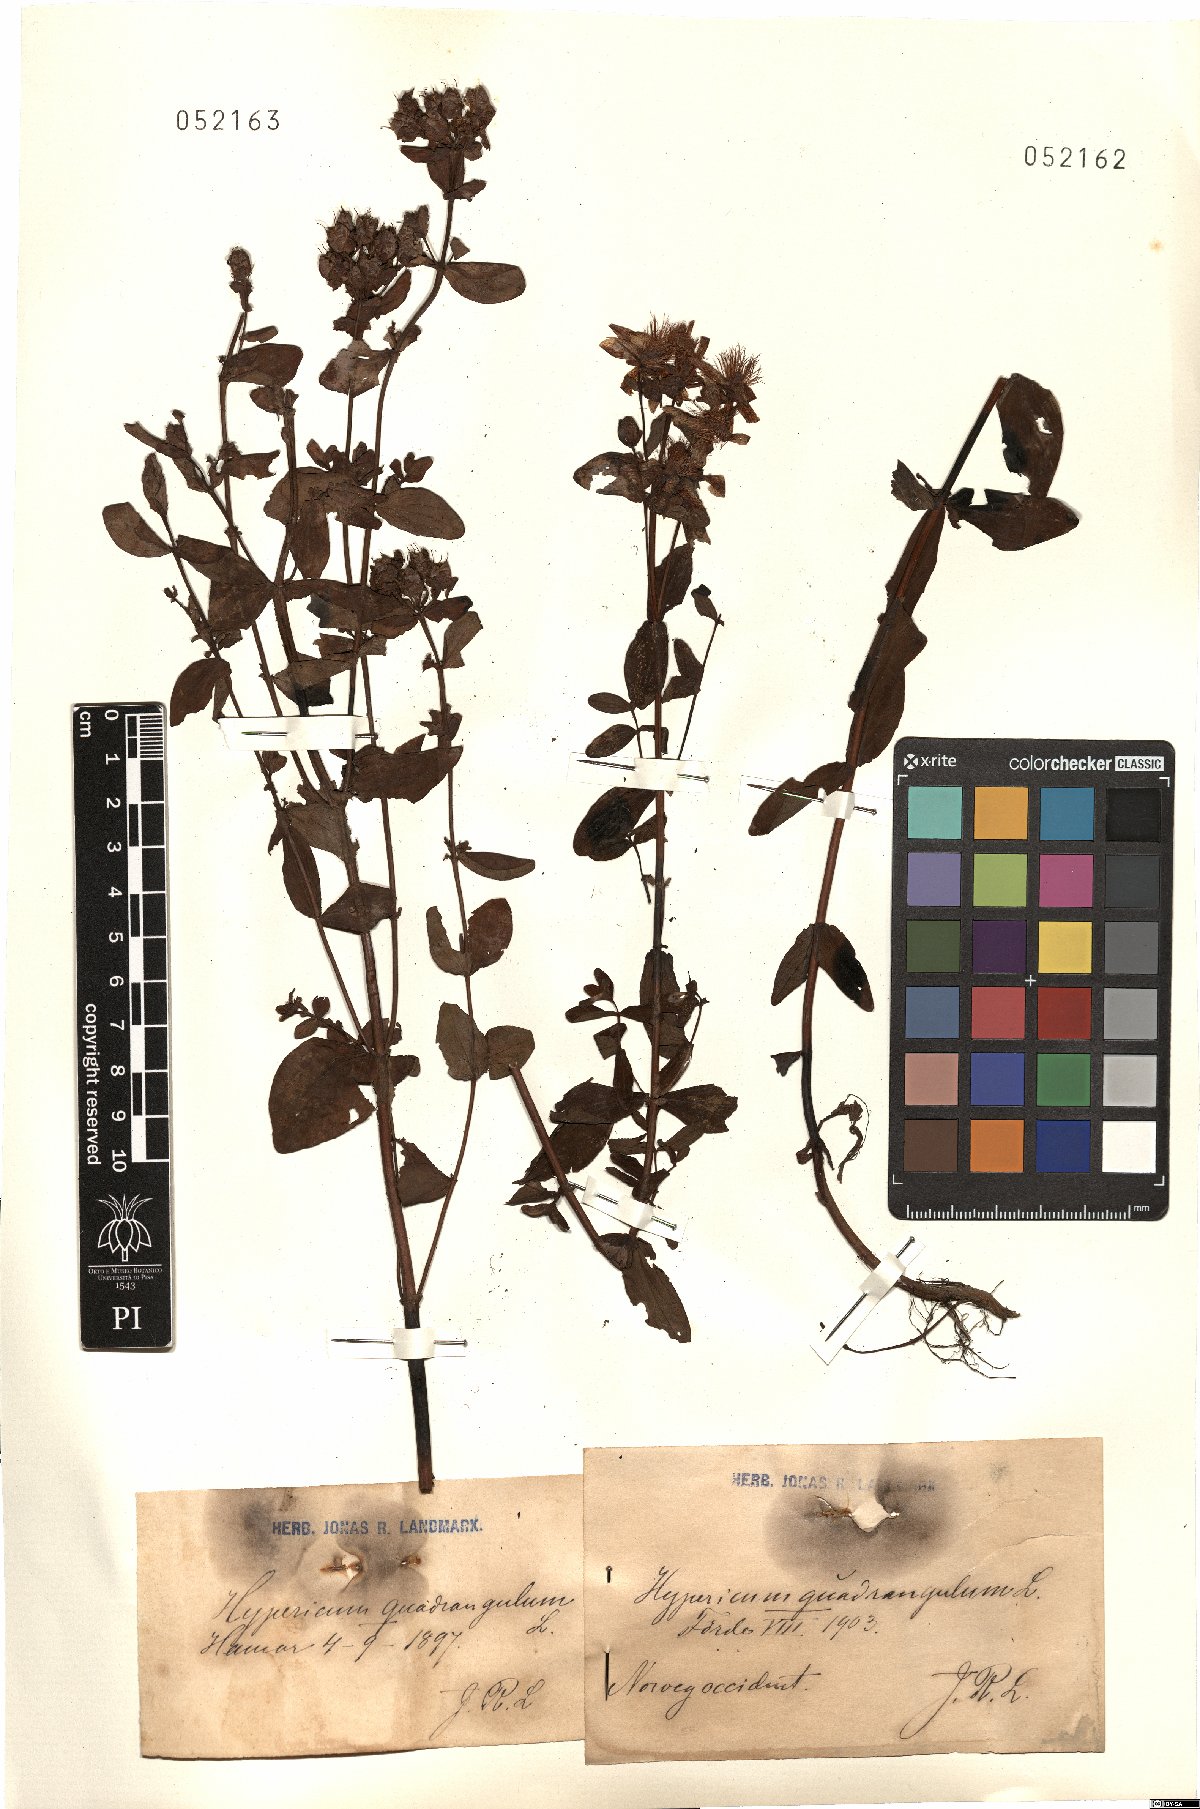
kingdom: Plantae
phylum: Tracheophyta
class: Magnoliopsida
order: Malpighiales
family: Hypericaceae
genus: Hypericum
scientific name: Hypericum tetrapterum
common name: Square-stalked st. john's-wort
